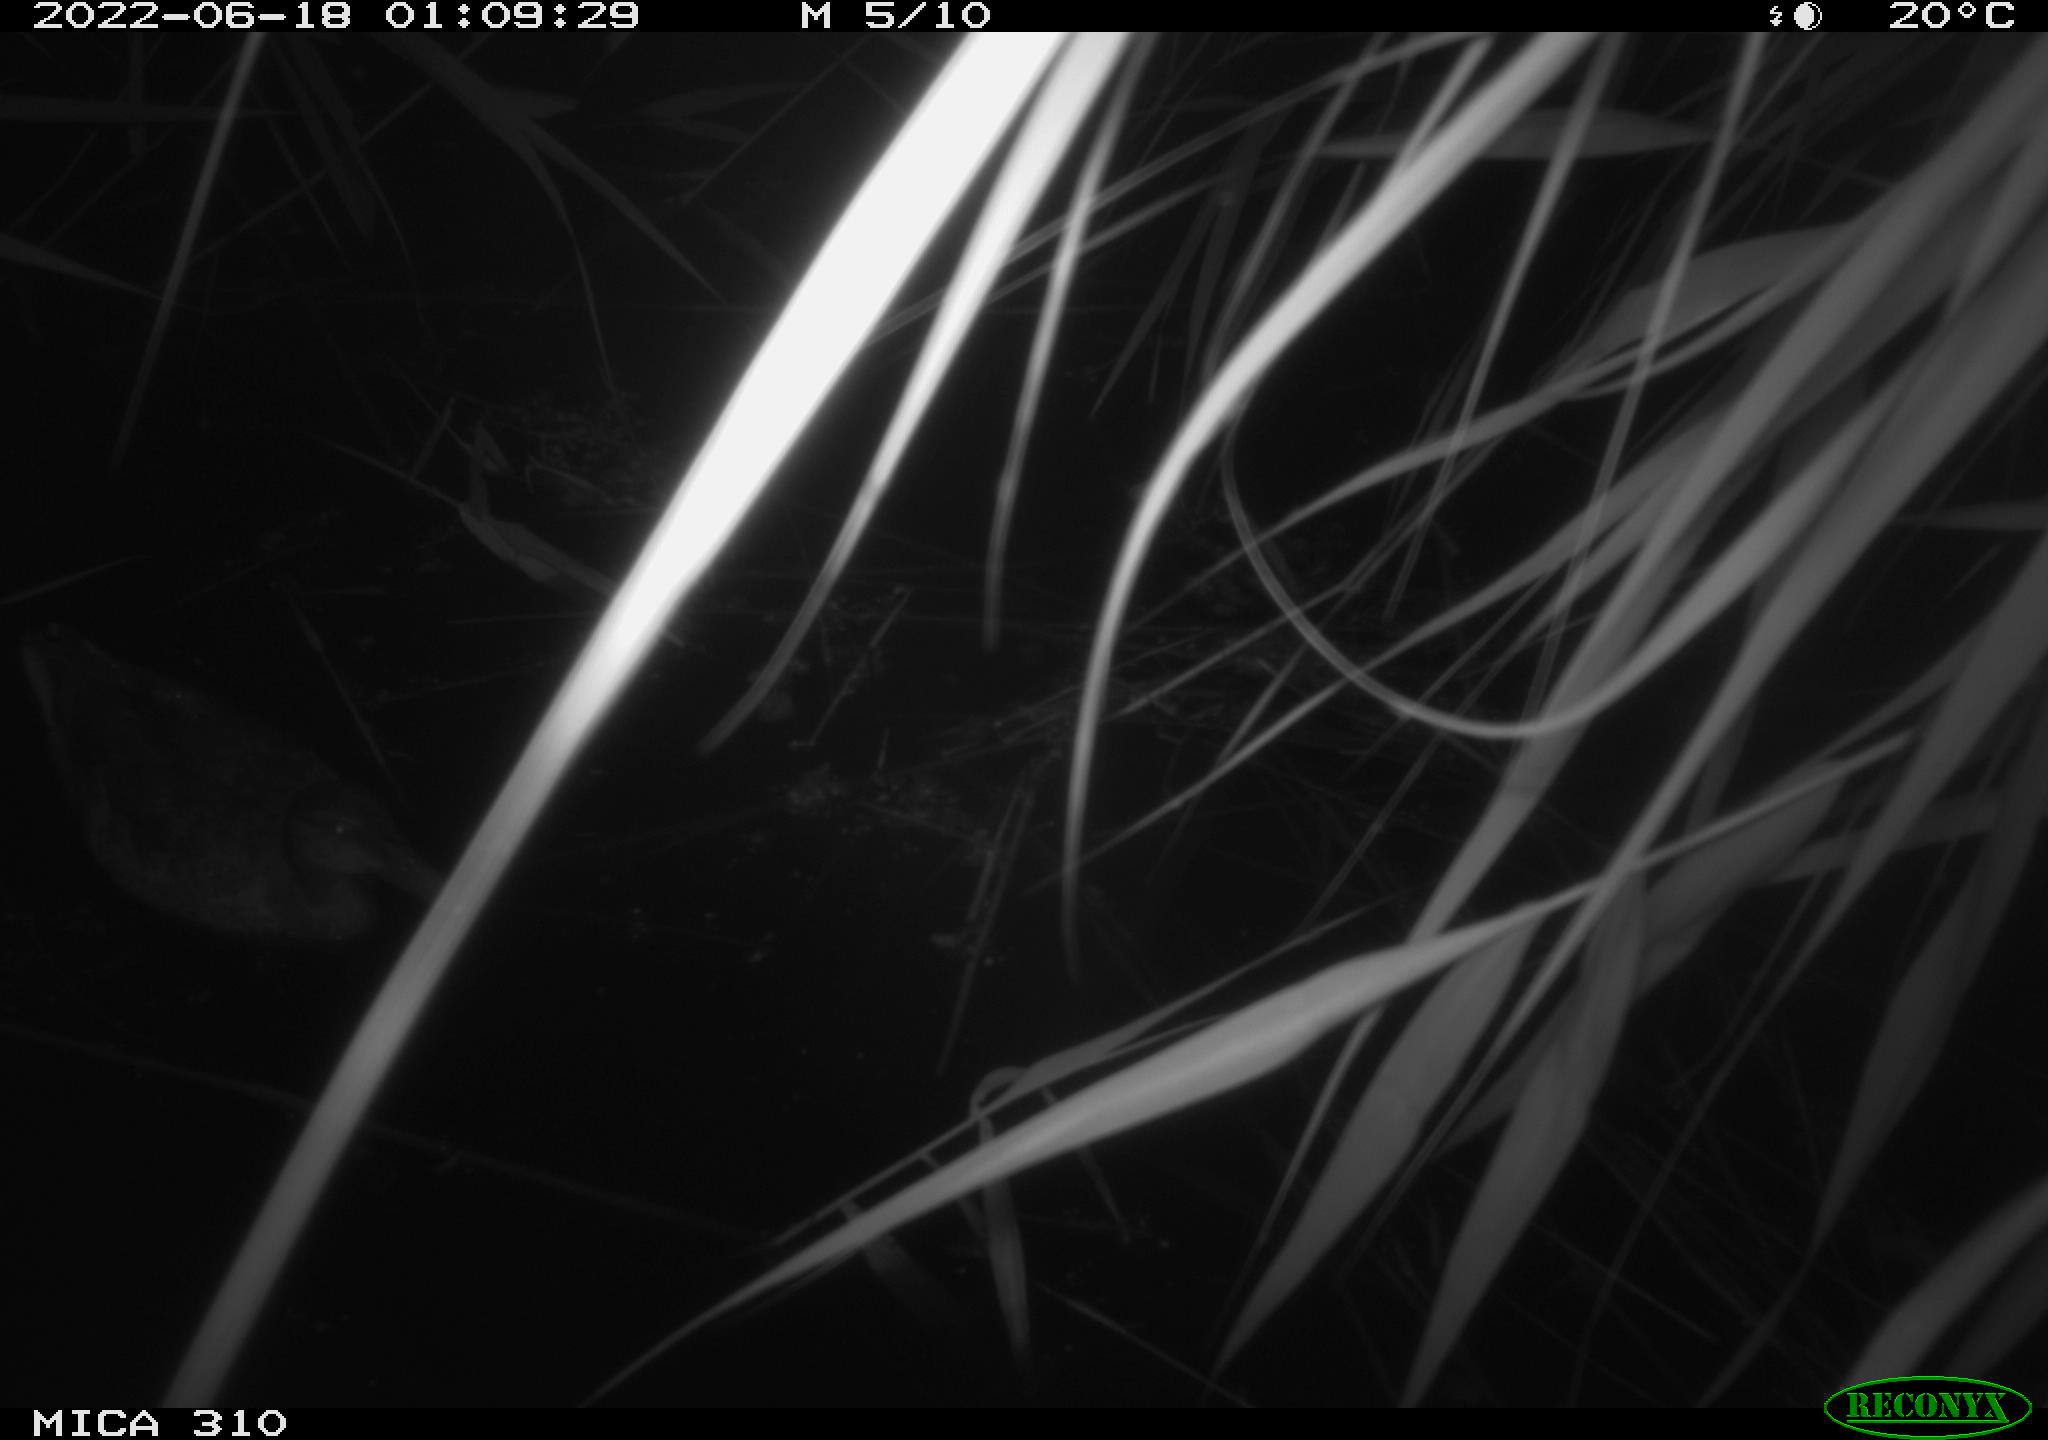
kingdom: Animalia
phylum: Chordata
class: Aves
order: Gruiformes
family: Rallidae
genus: Gallinula
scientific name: Gallinula chloropus
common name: Common moorhen
